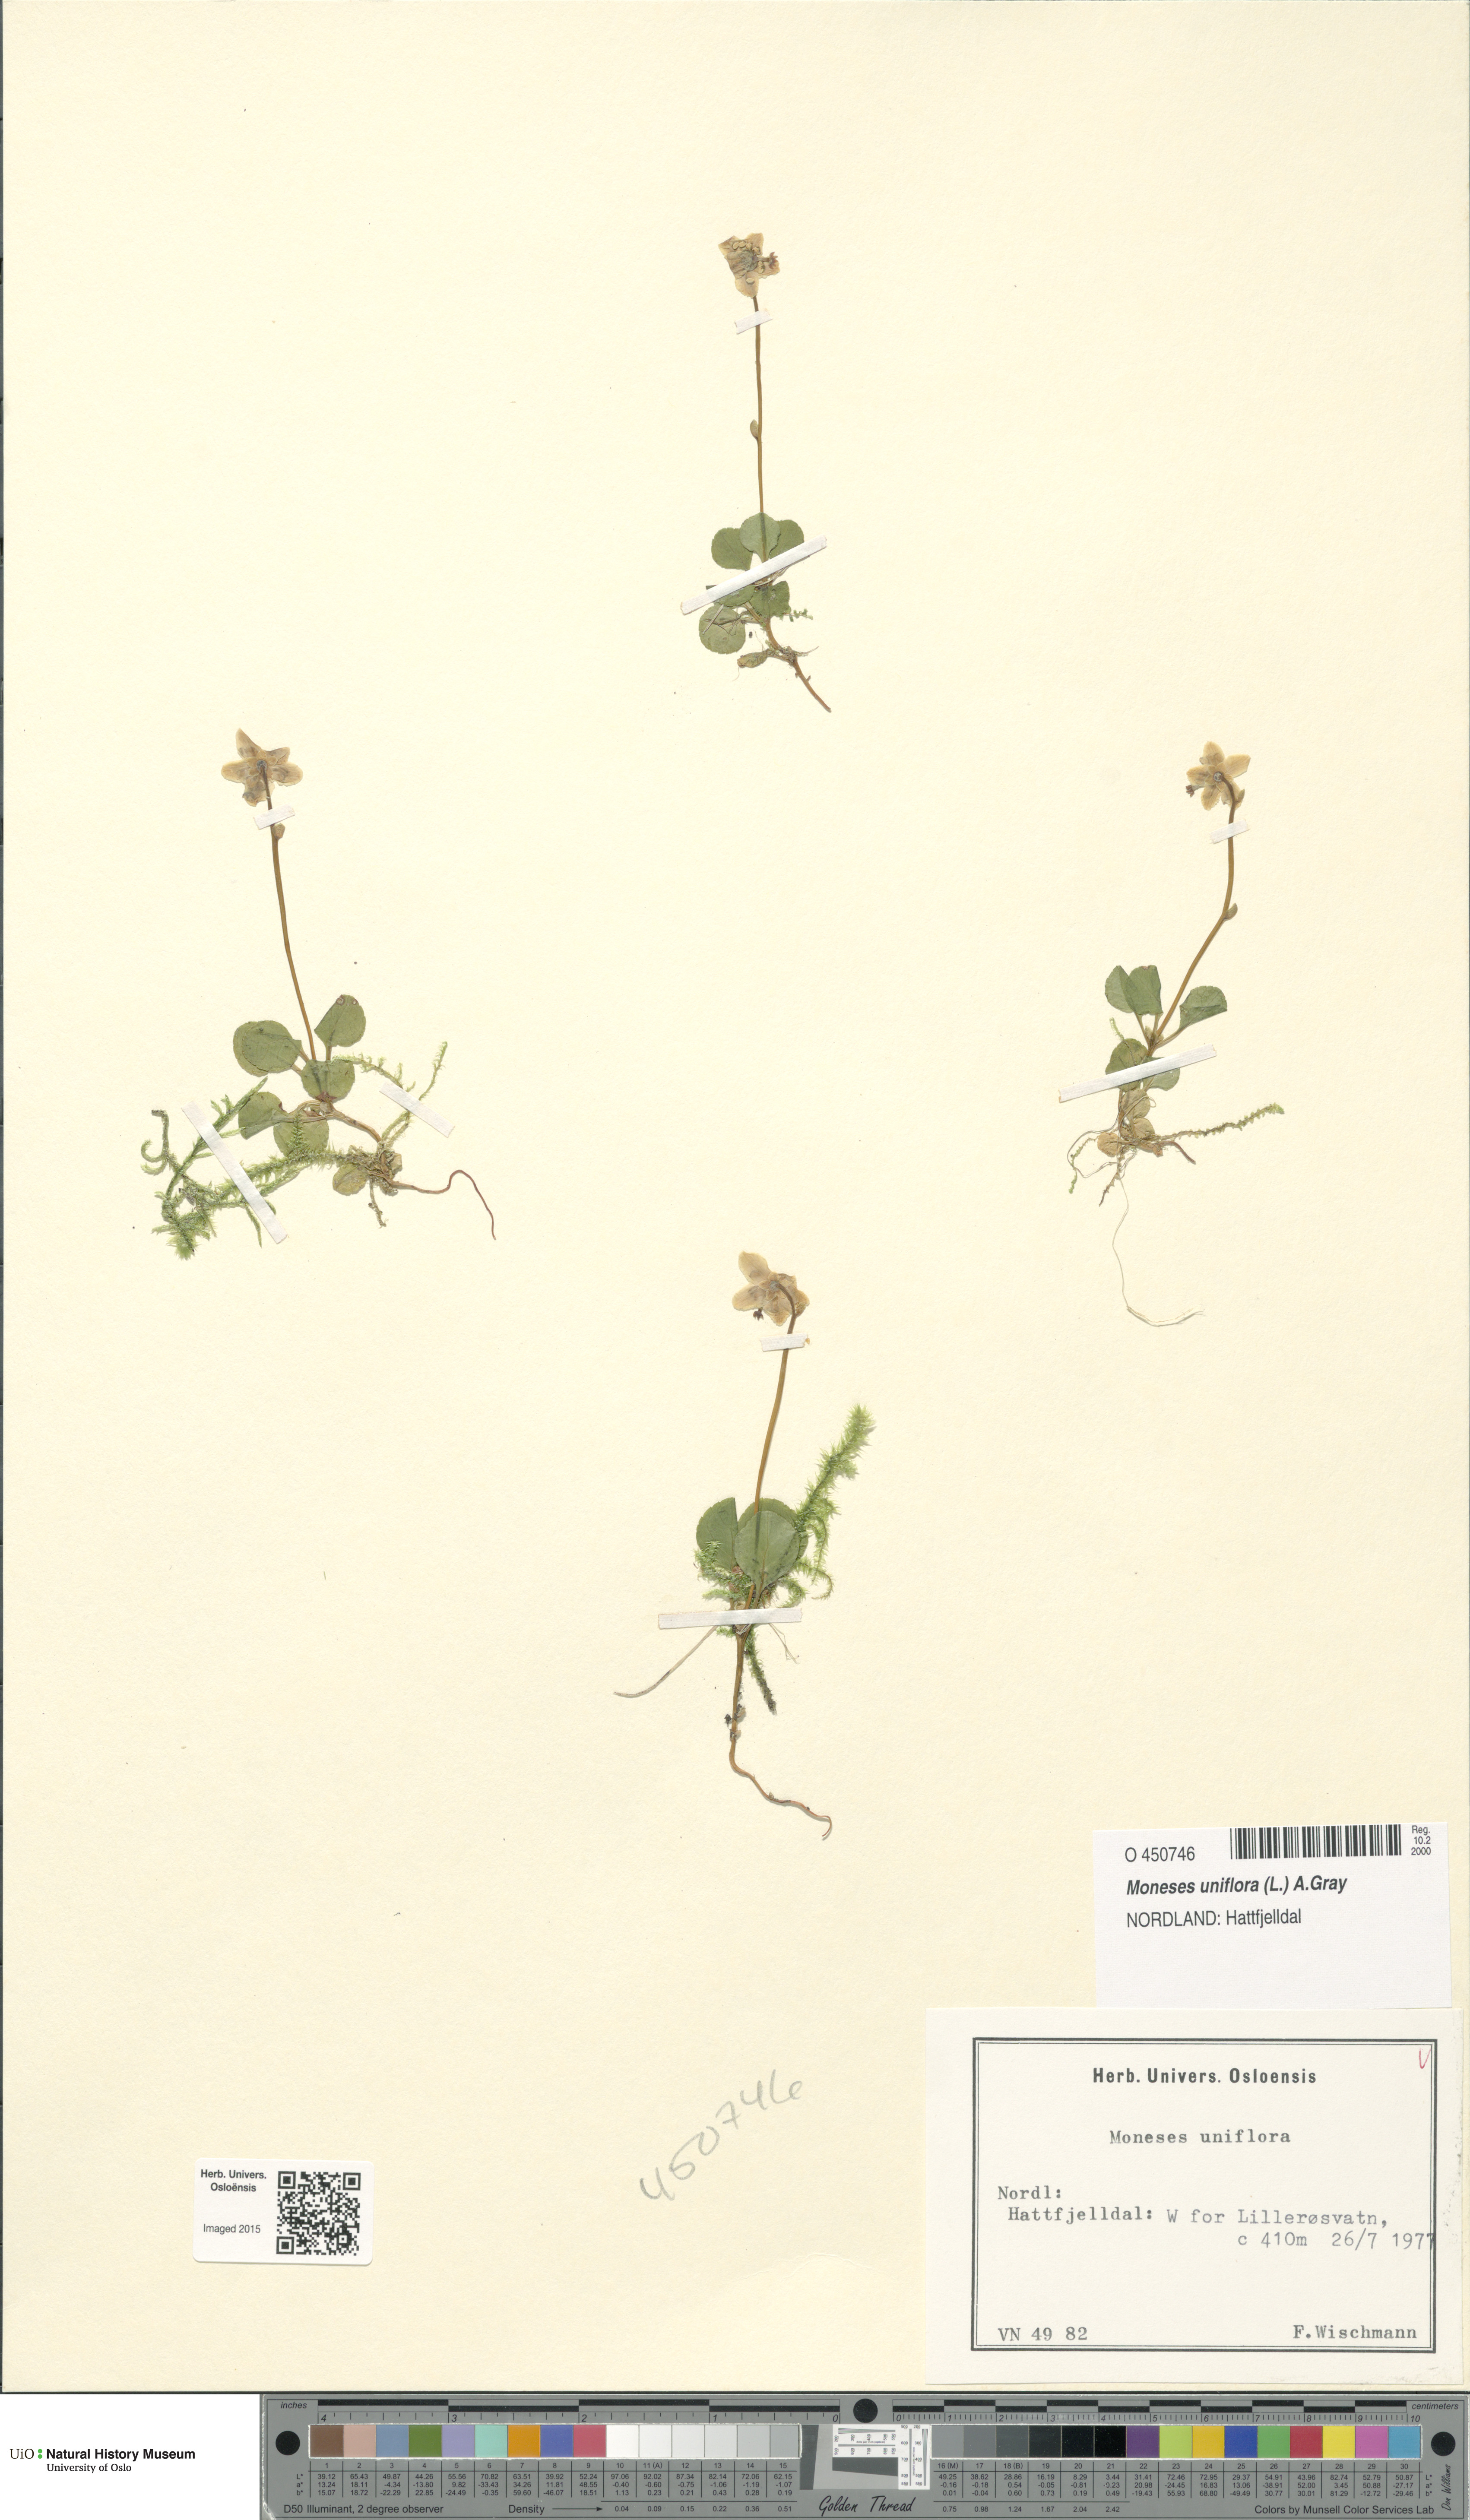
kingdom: Plantae
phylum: Tracheophyta
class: Magnoliopsida
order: Ericales
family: Ericaceae
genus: Moneses
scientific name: Moneses uniflora
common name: One-flowered wintergreen
